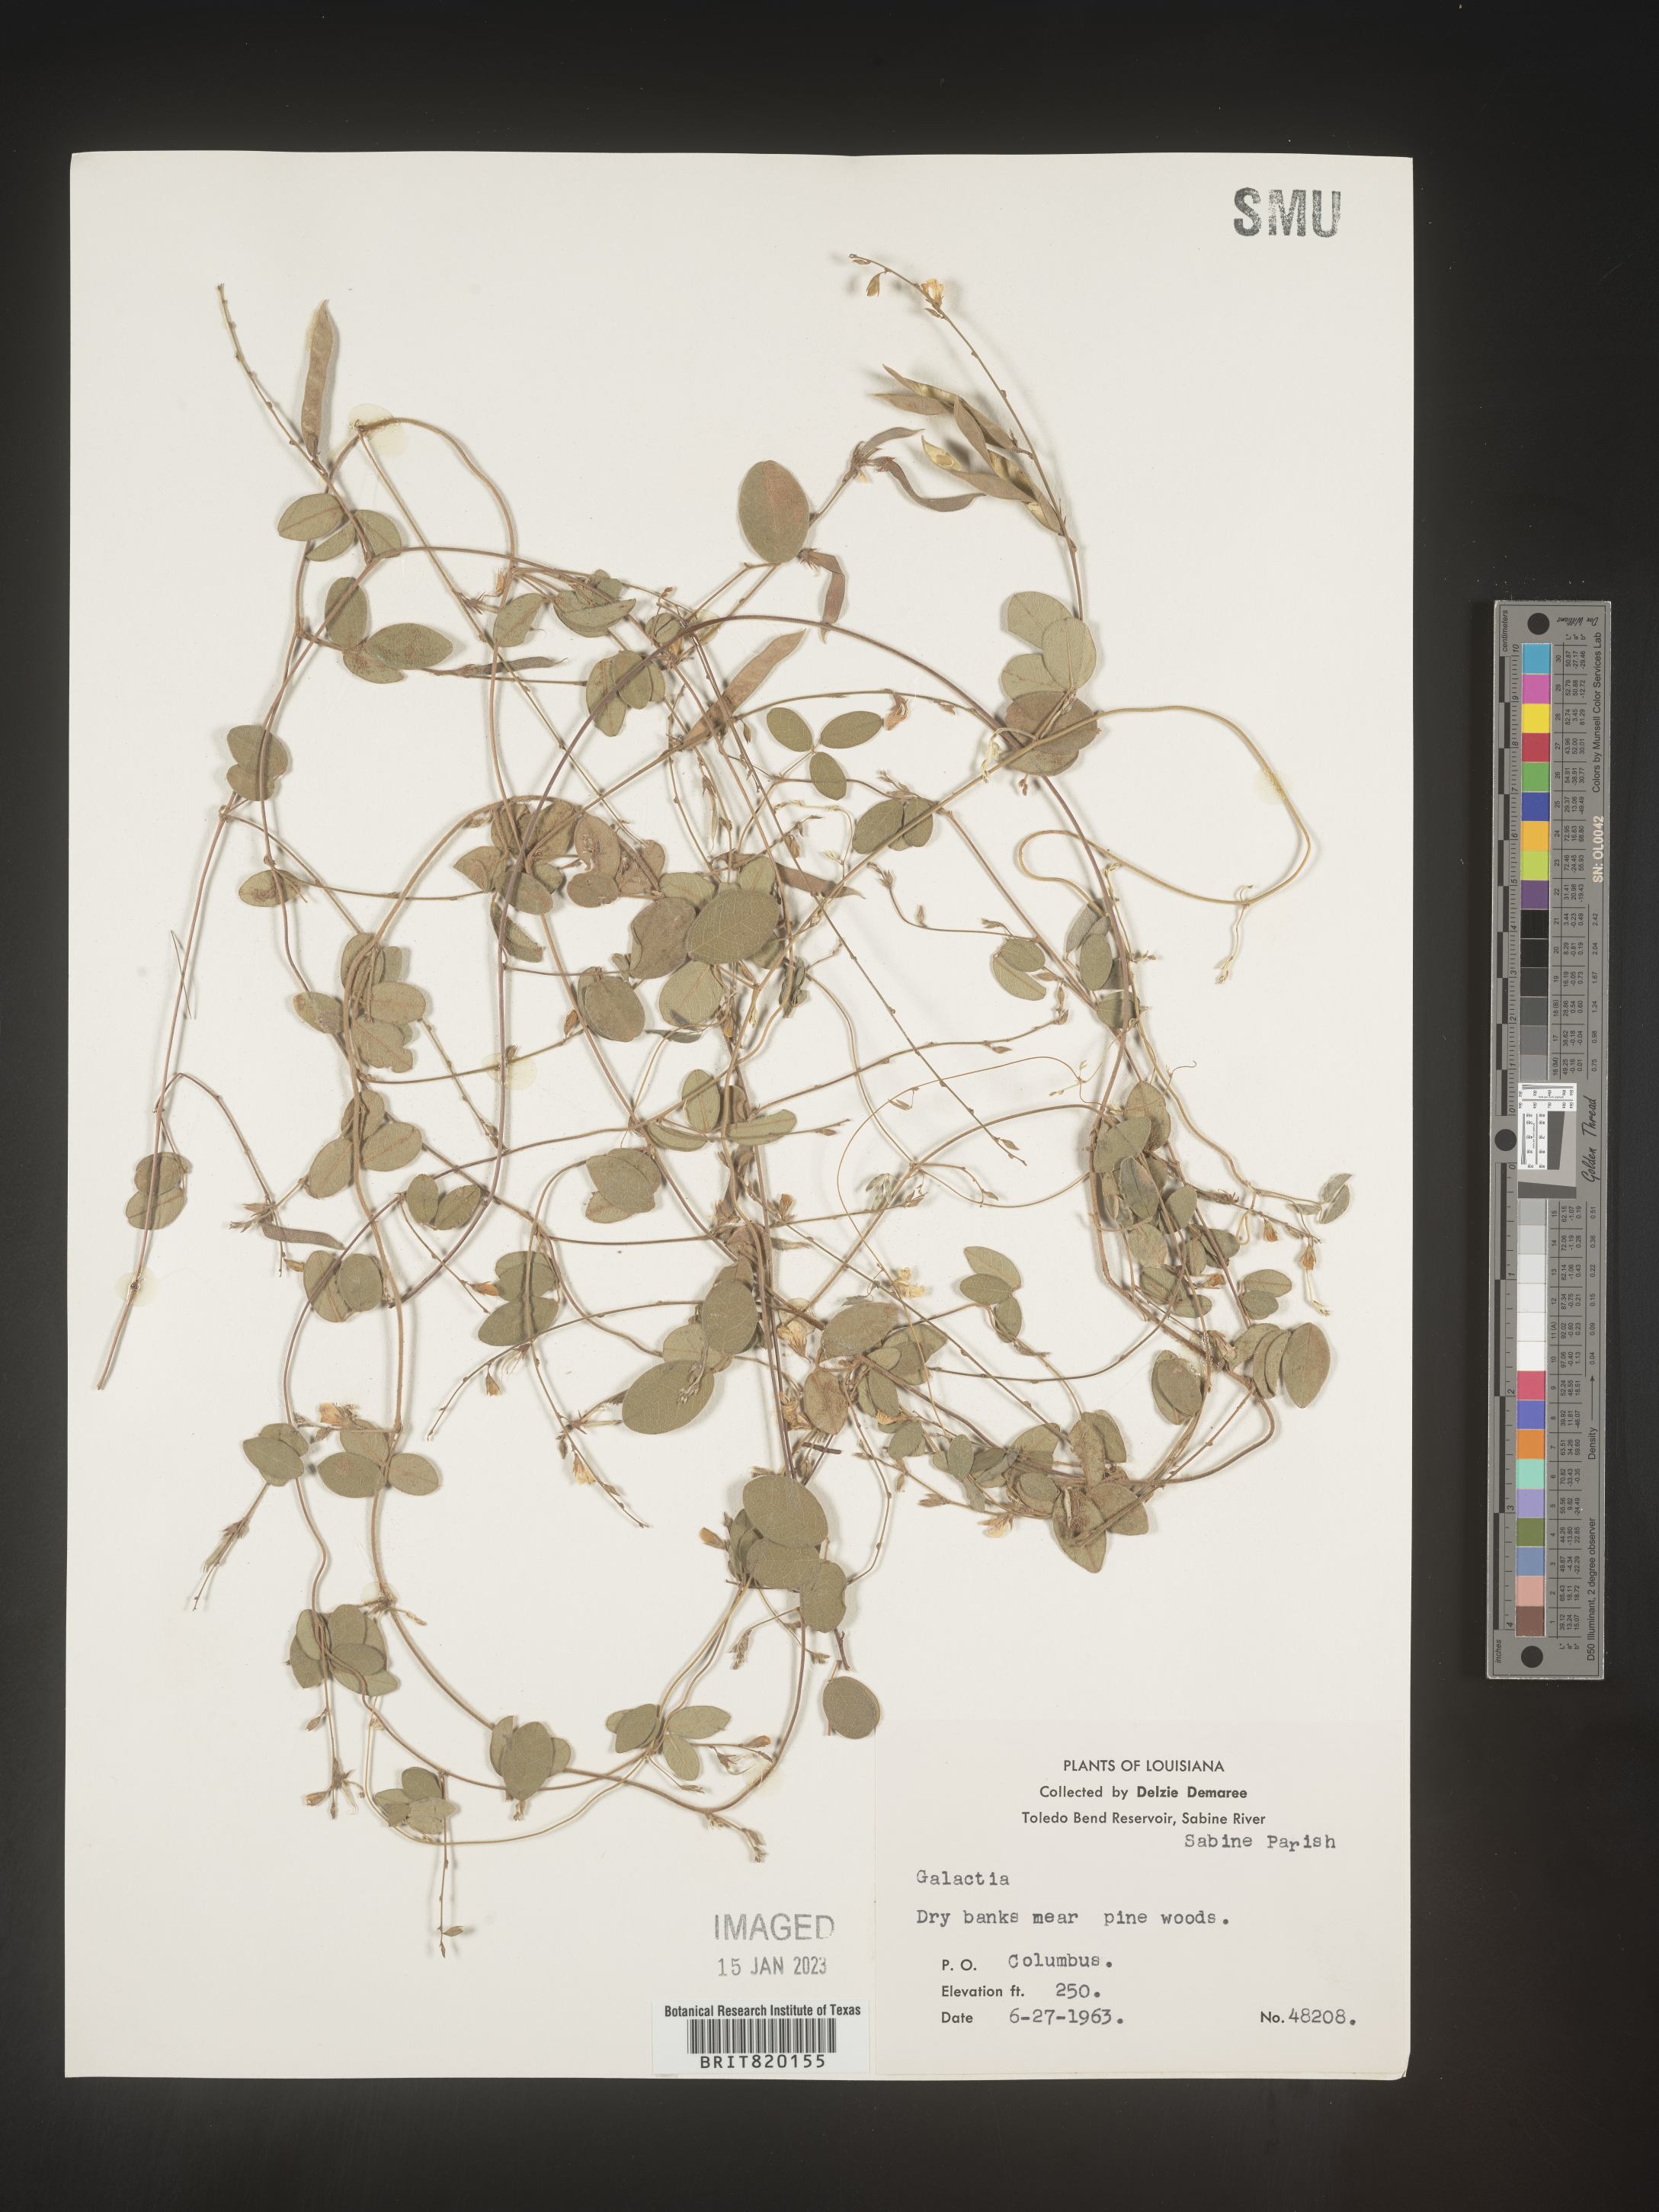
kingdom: Plantae
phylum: Tracheophyta
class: Magnoliopsida
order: Fabales
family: Fabaceae
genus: Galactia
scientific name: Galactia volubilis
